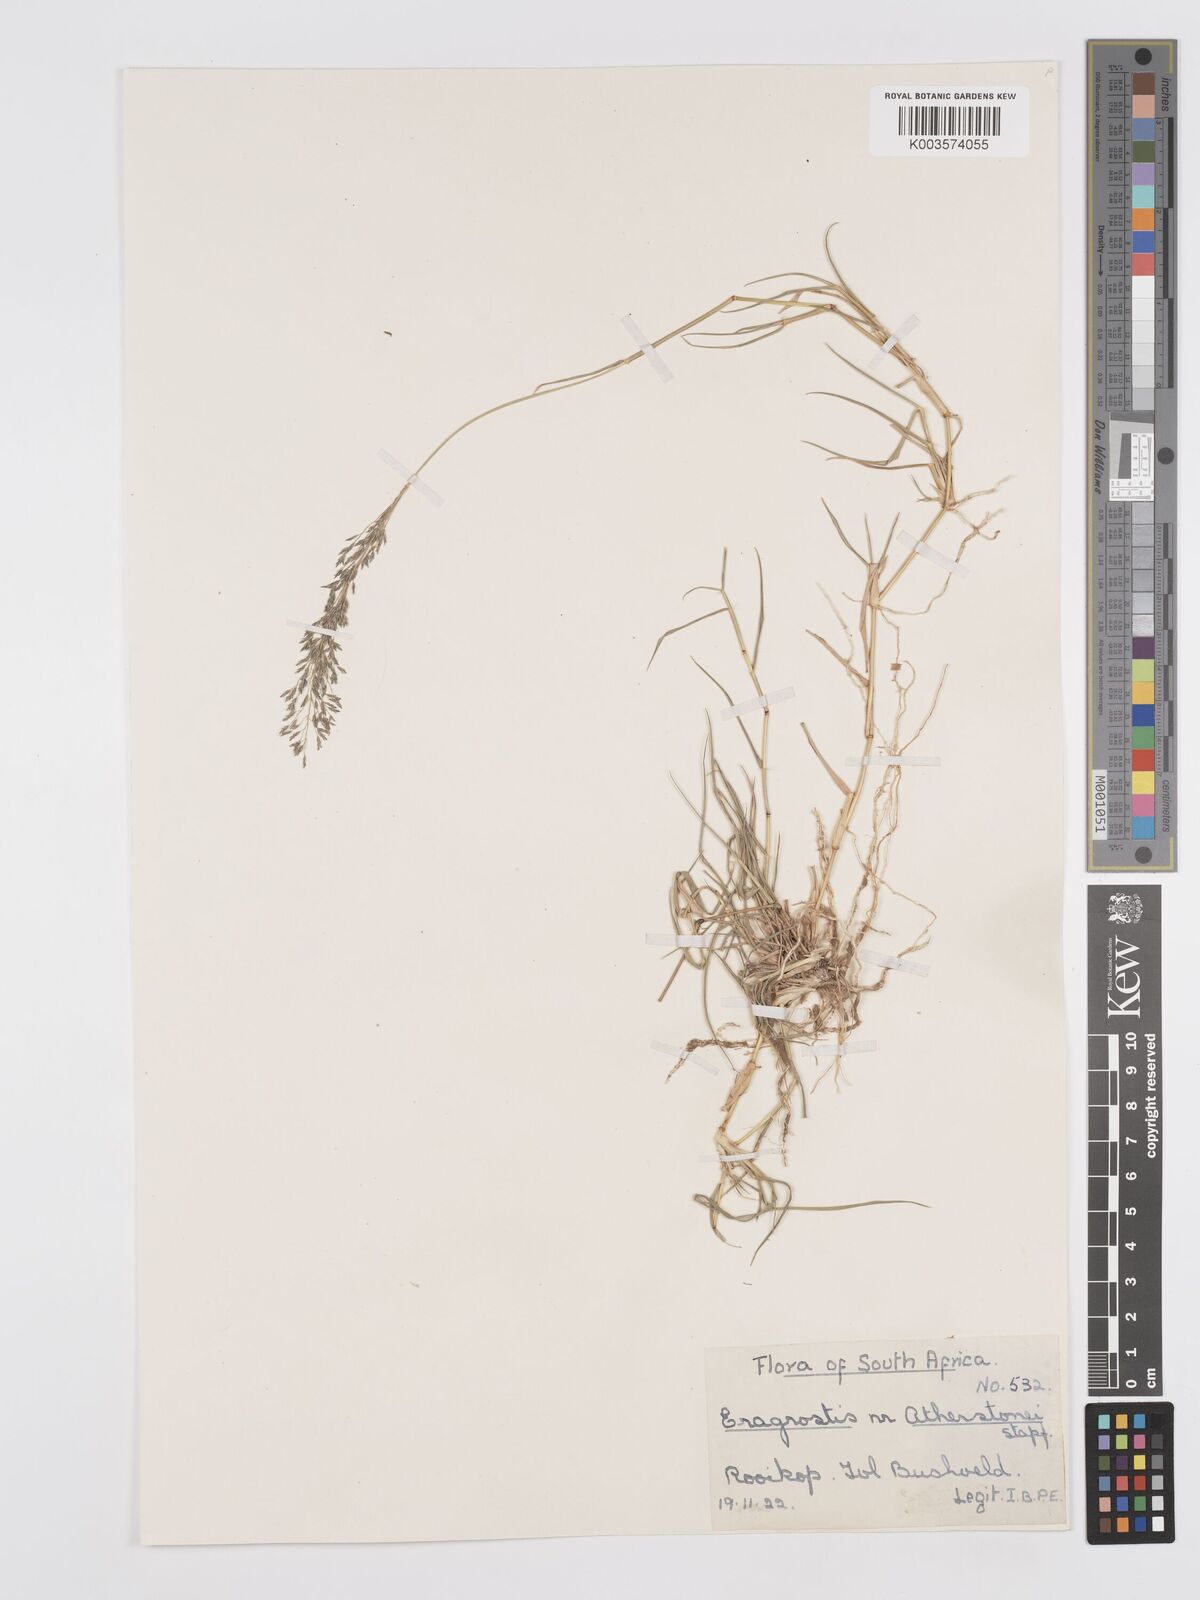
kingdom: Plantae
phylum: Tracheophyta
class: Liliopsida
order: Poales
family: Poaceae
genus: Eragrostis
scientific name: Eragrostis cylindriflora
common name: Cylinderflower lovegrass
